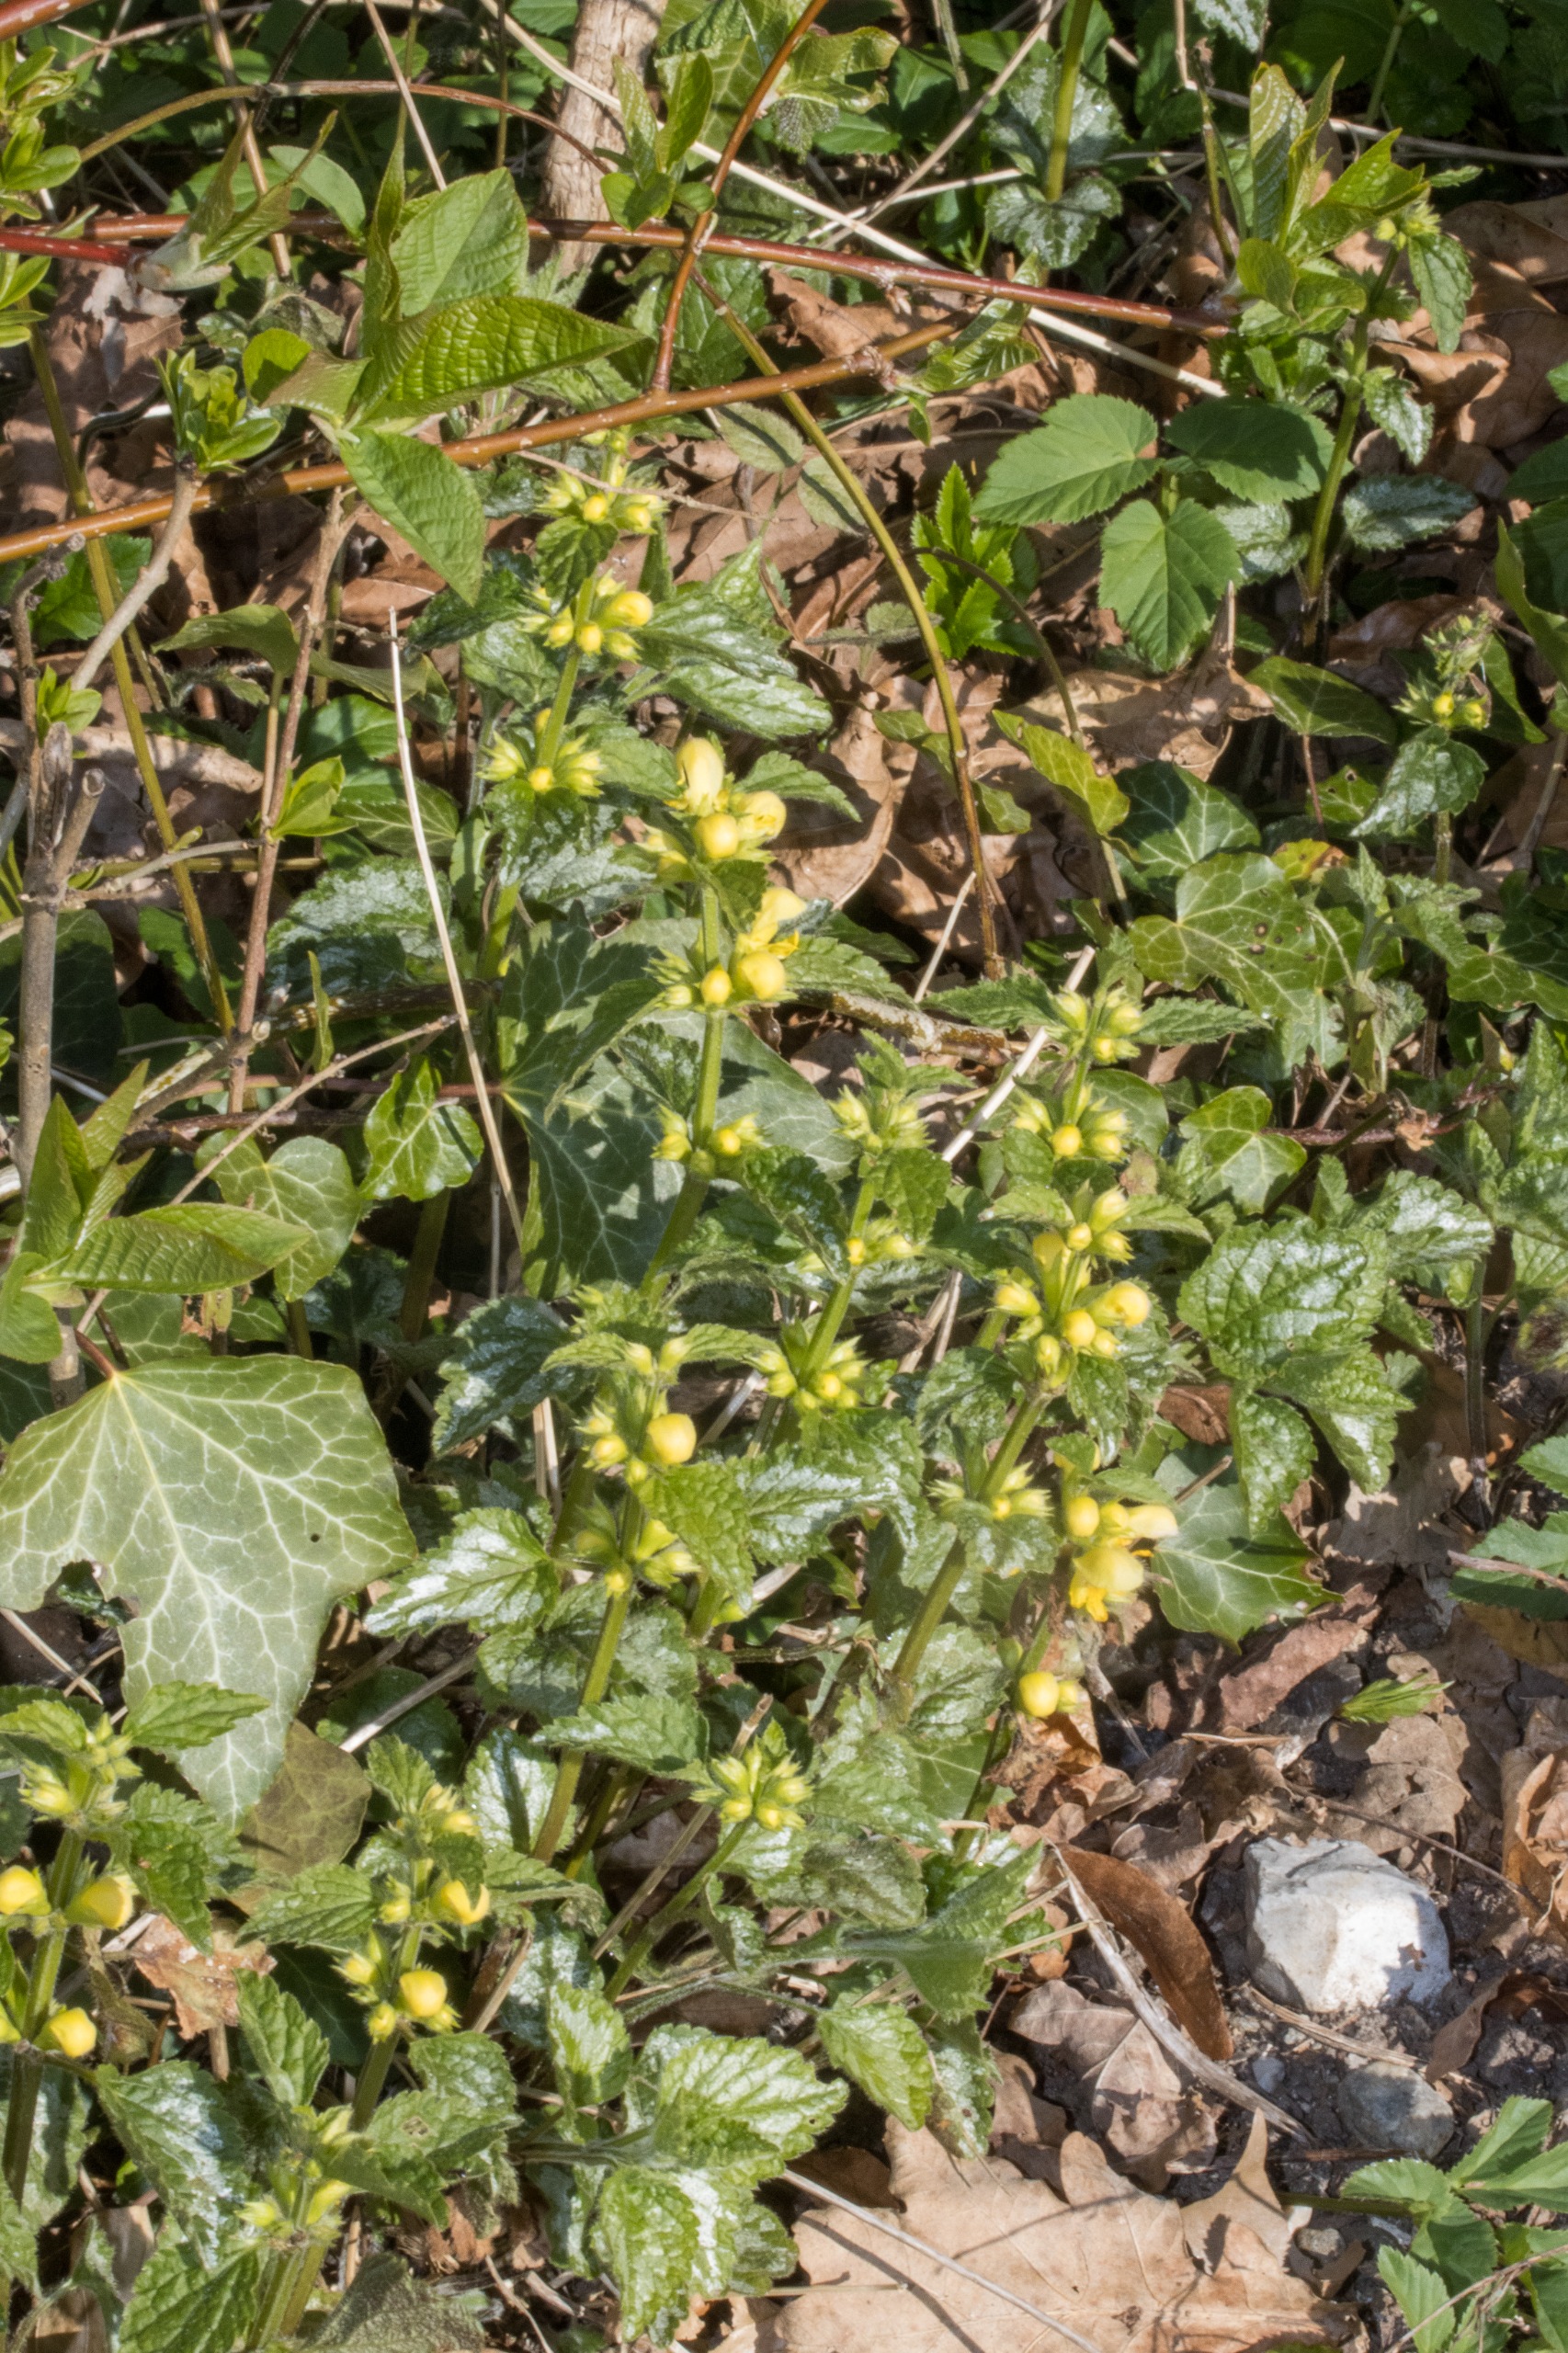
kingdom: Plantae
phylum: Tracheophyta
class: Magnoliopsida
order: Lamiales
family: Lamiaceae
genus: Lamium
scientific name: Lamium galeobdolon
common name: Have-guldnælde
